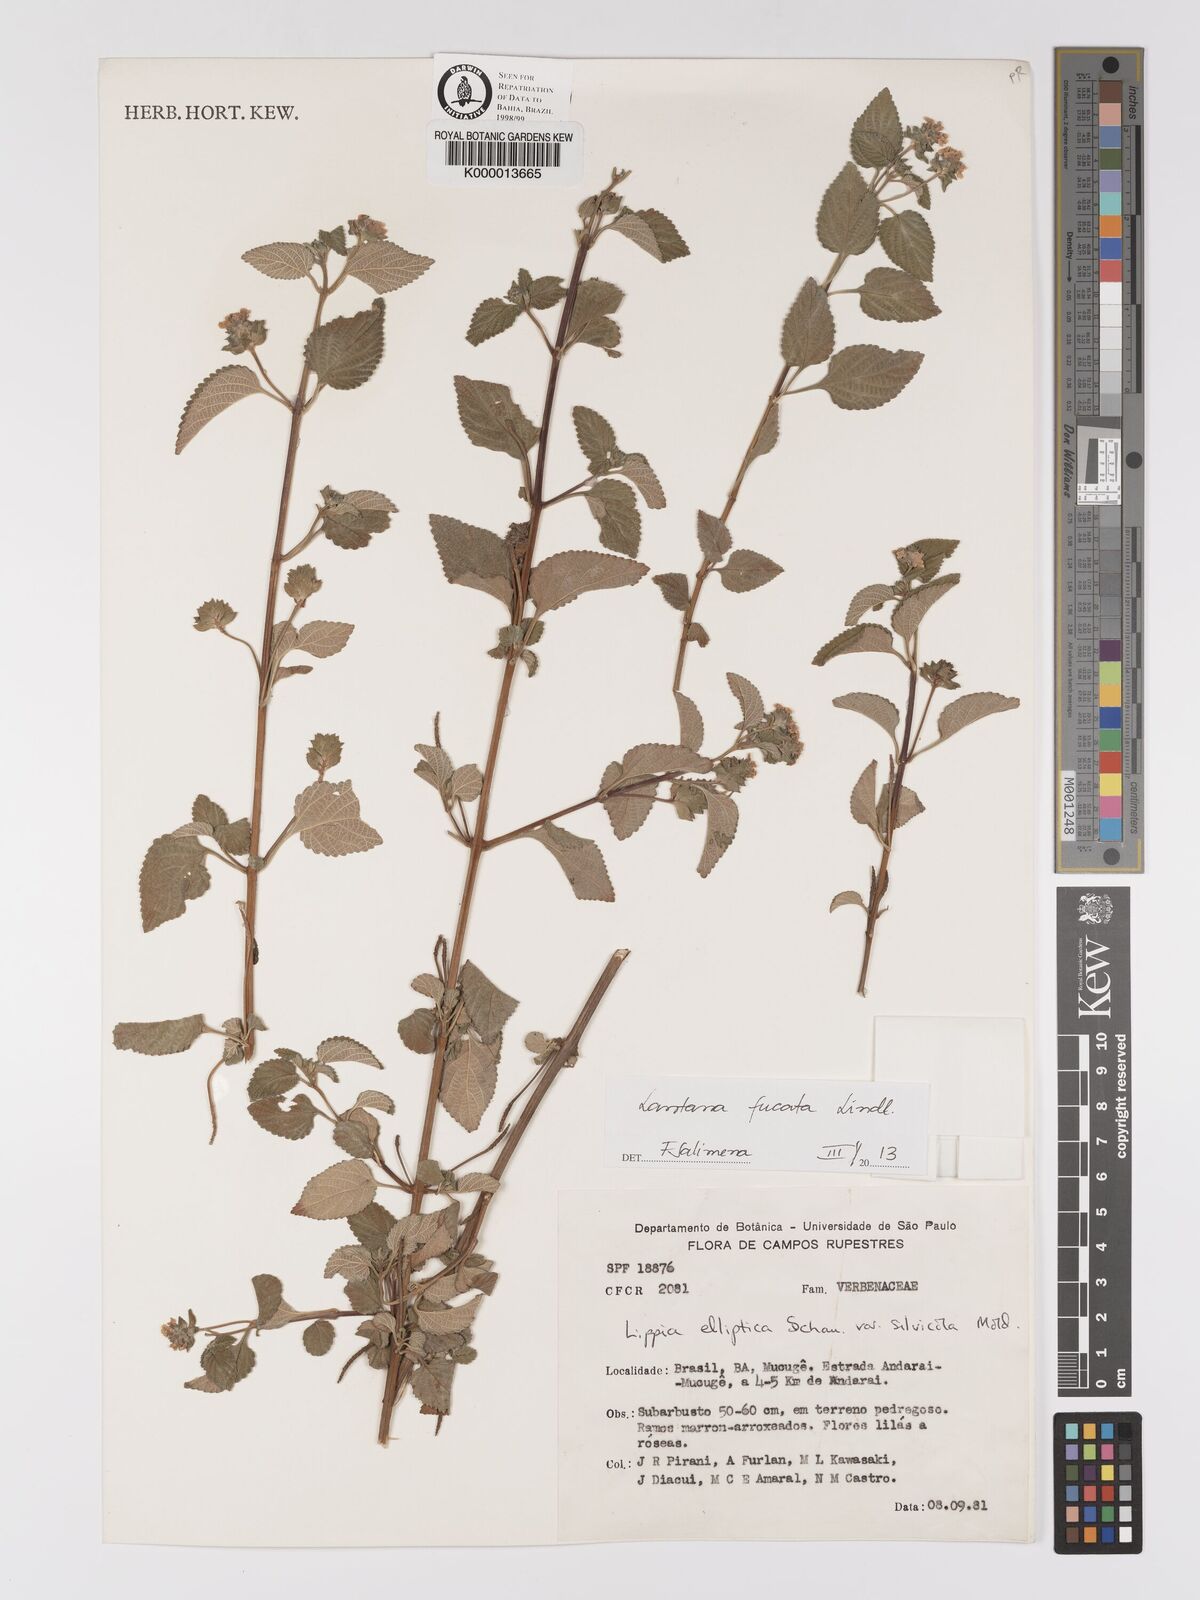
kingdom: Plantae
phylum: Tracheophyta
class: Magnoliopsida
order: Lamiales
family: Verbenaceae
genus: Lippia
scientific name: Lippia subracemosa
